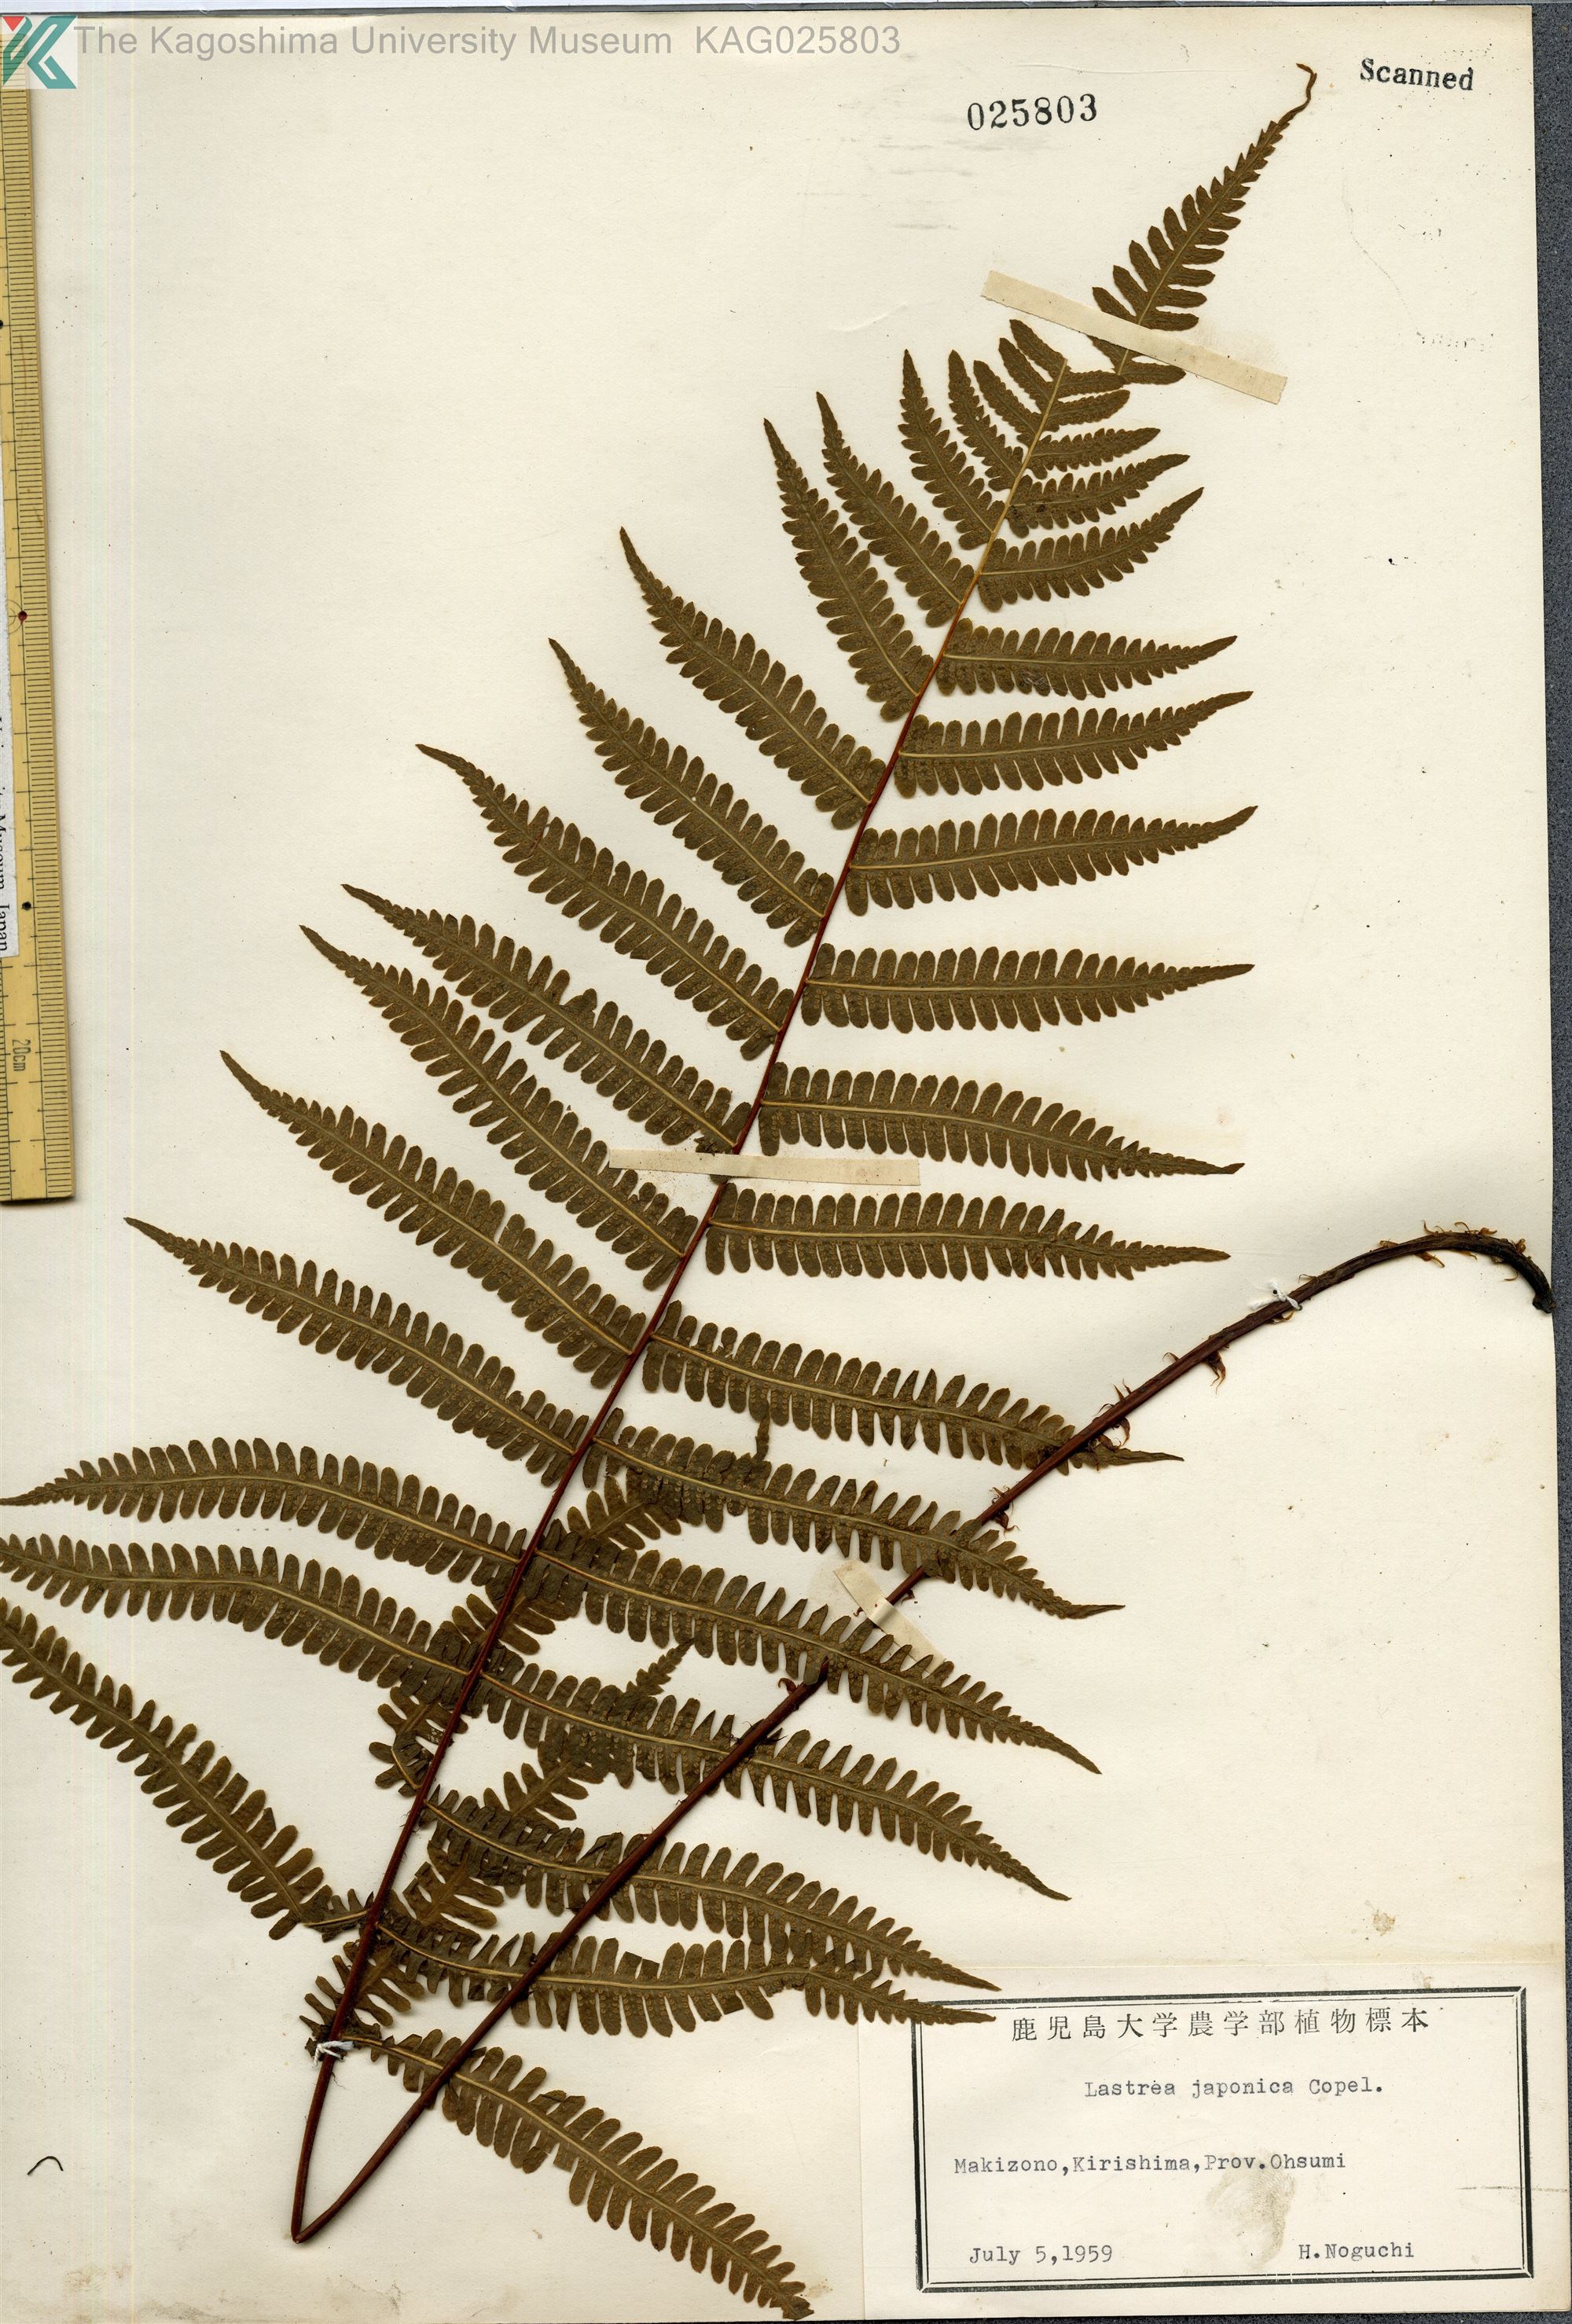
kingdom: Plantae
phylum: Tracheophyta
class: Polypodiopsida
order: Polypodiales
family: Thelypteridaceae
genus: Coryphopteris
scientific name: Coryphopteris japonica
